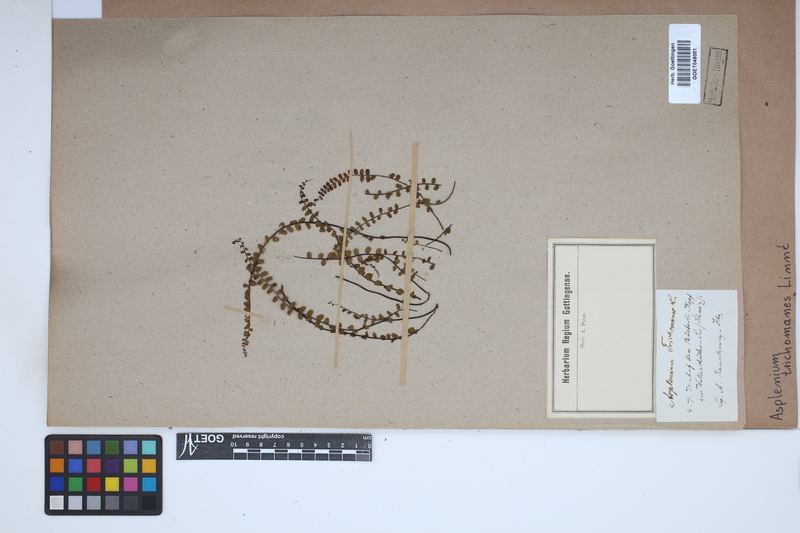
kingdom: Plantae
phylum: Tracheophyta
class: Polypodiopsida
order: Polypodiales
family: Aspleniaceae
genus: Asplenium
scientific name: Asplenium trichomanes
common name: Maidenhair spleenwort
